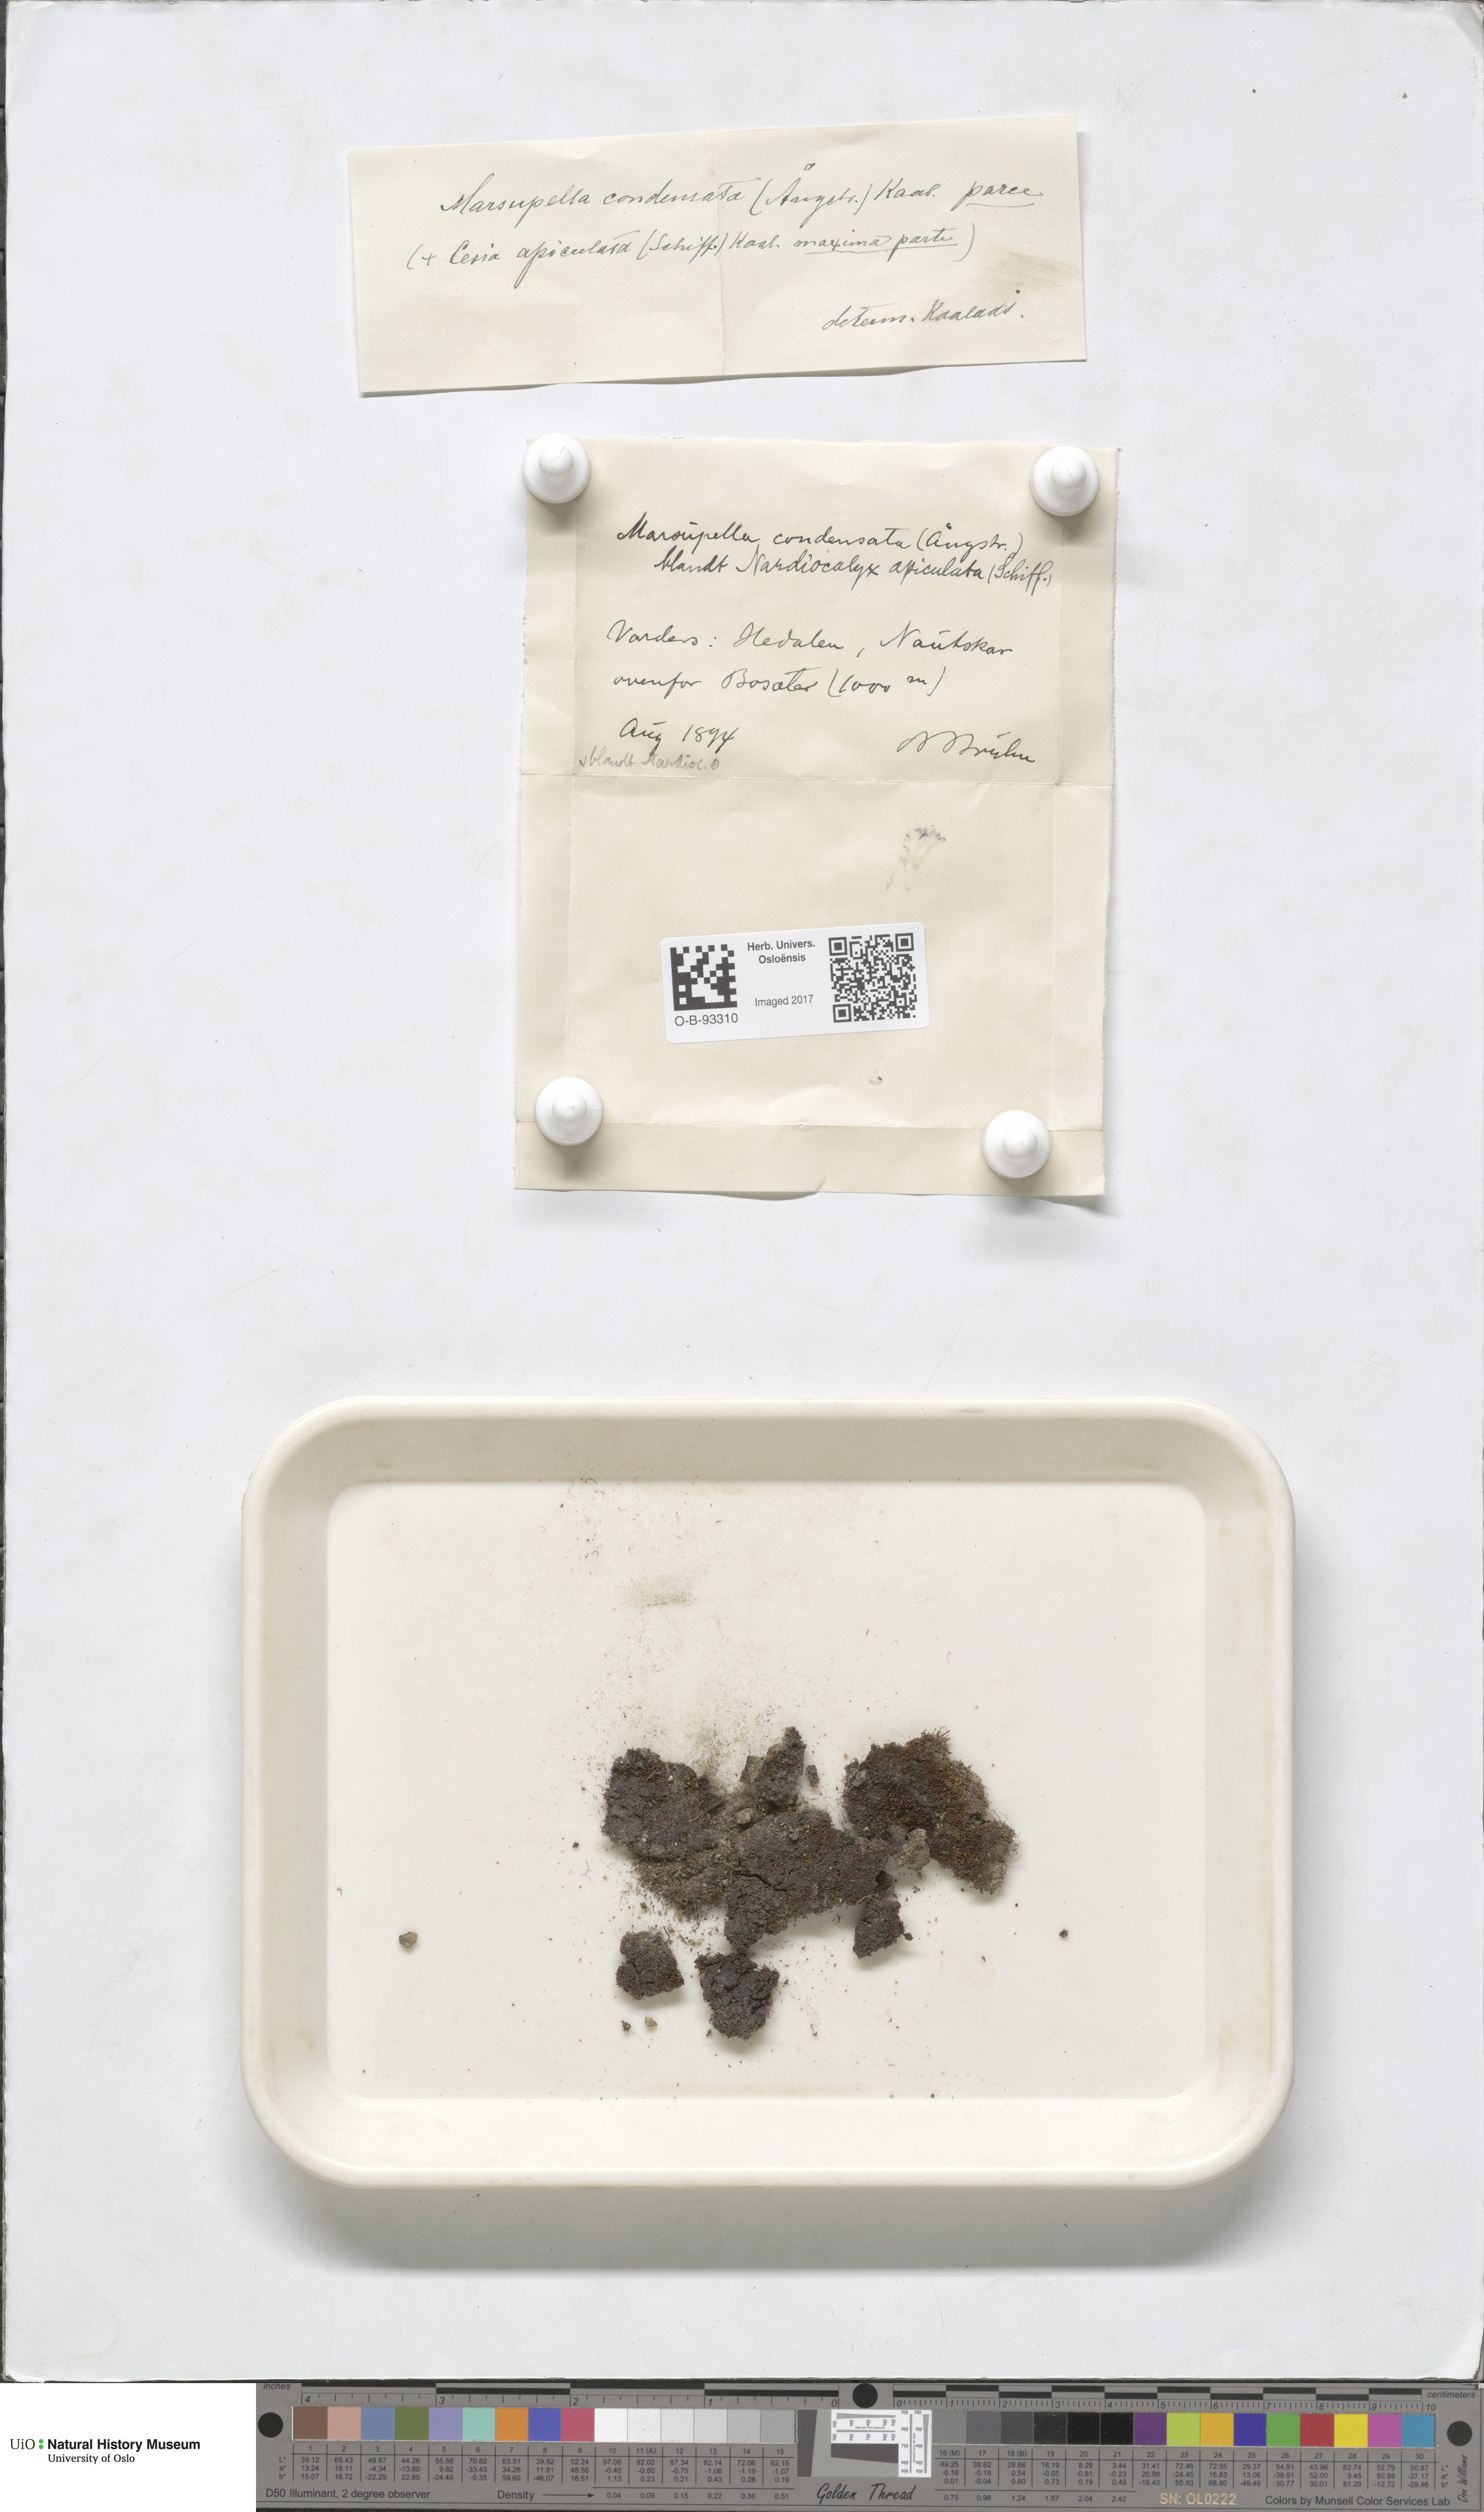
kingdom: Plantae
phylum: Marchantiophyta
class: Jungermanniopsida
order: Jungermanniales
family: Gymnomitriaceae
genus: Gymnomitrion
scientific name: Gymnomitrion brevissimum
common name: Snow rustwort
